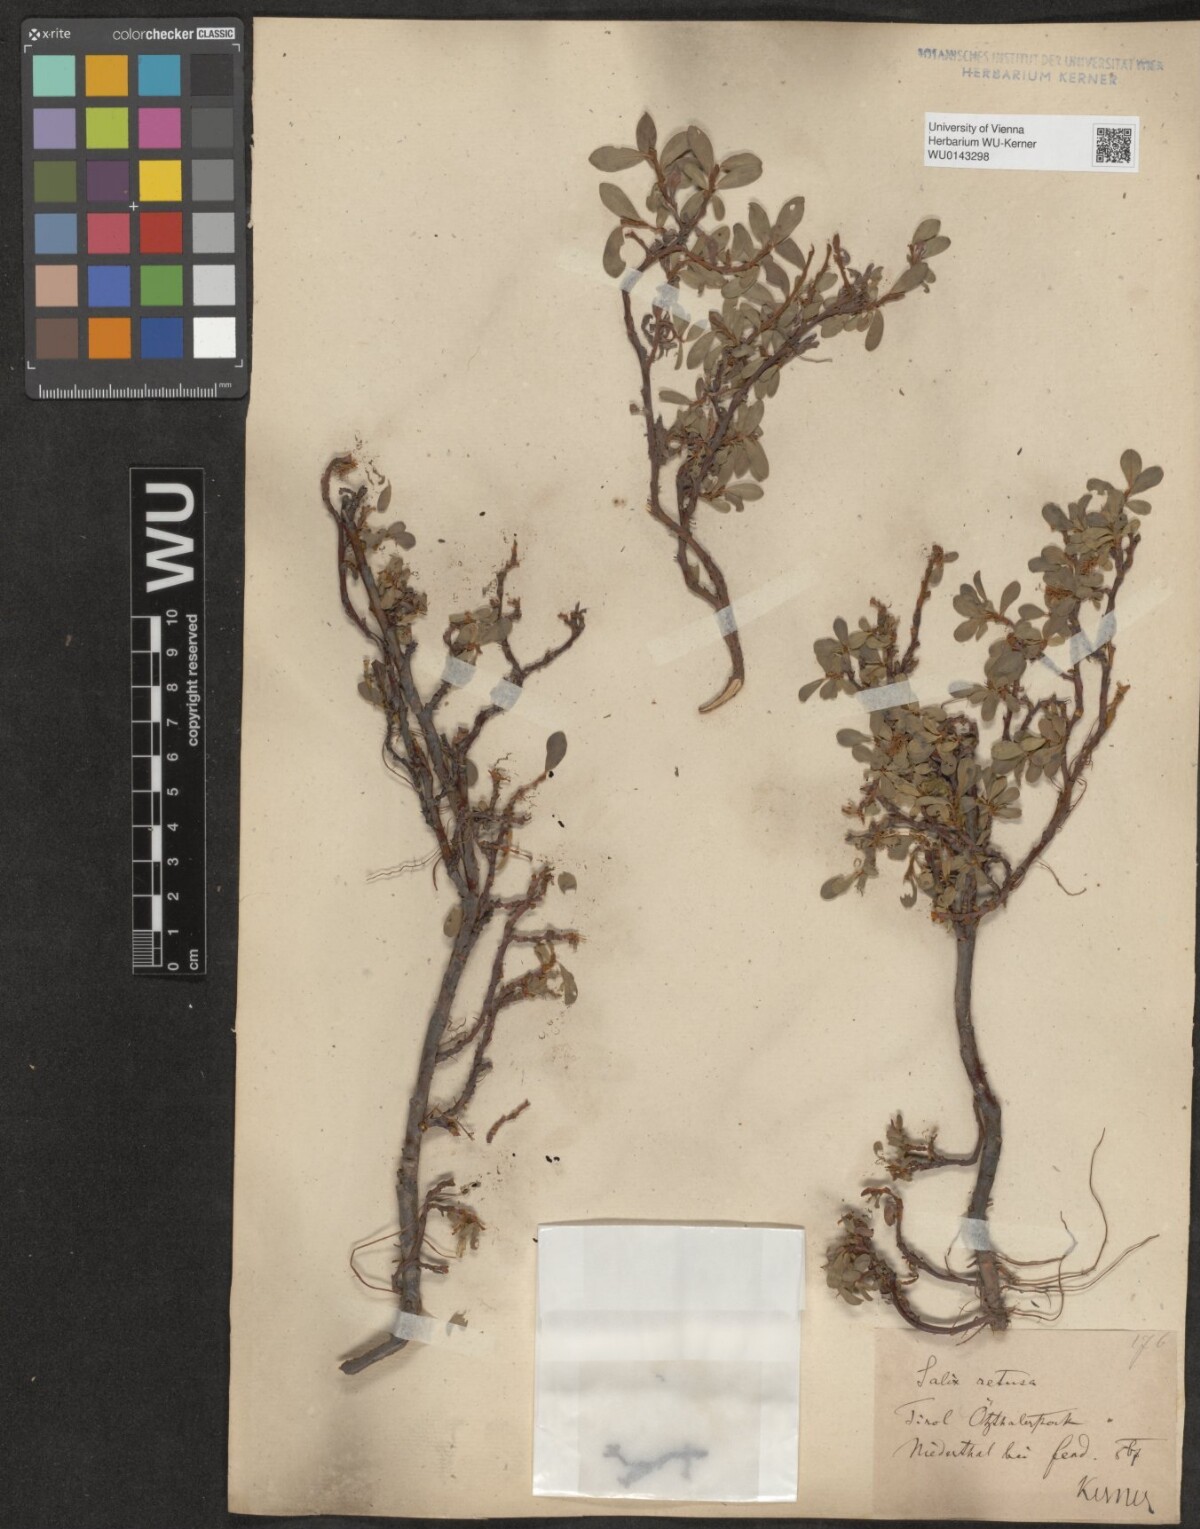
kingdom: Plantae
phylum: Tracheophyta
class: Magnoliopsida
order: Malpighiales
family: Salicaceae
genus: Salix
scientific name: Salix retusa
